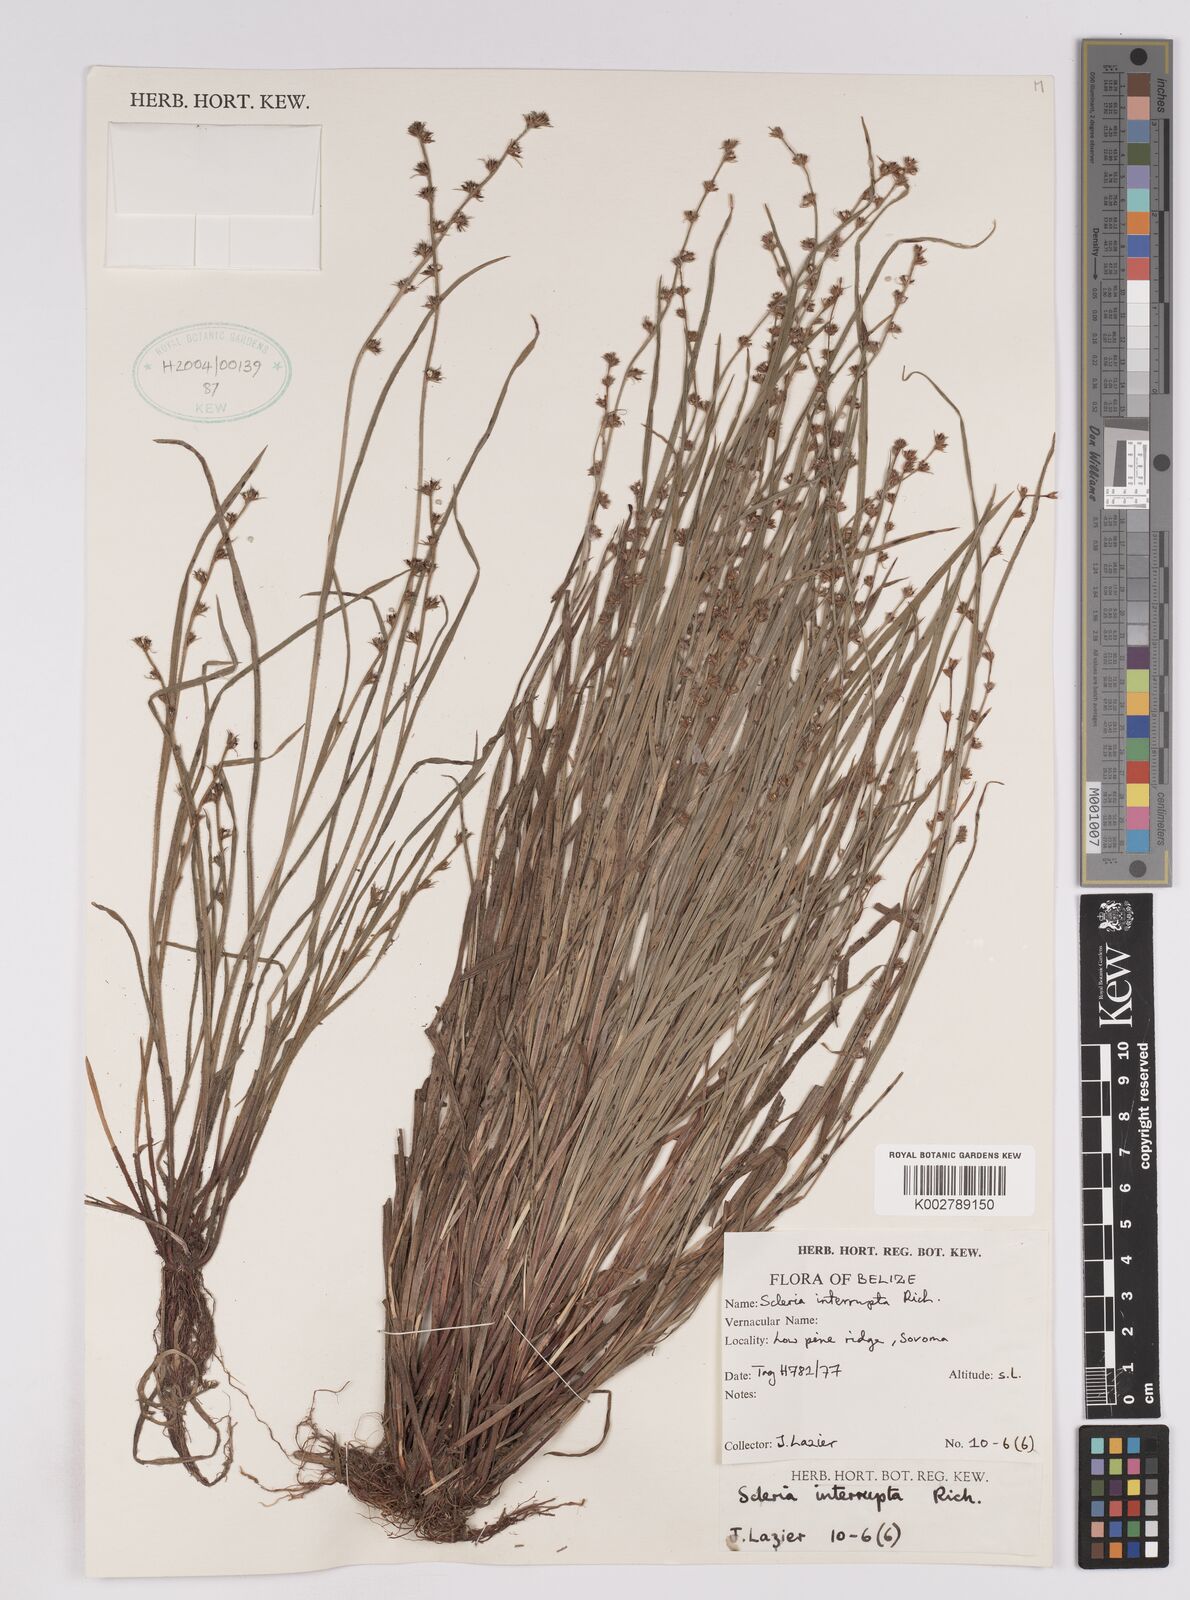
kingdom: Plantae
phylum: Tracheophyta
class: Liliopsida
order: Poales
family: Cyperaceae
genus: Scleria
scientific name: Scleria interrupta
